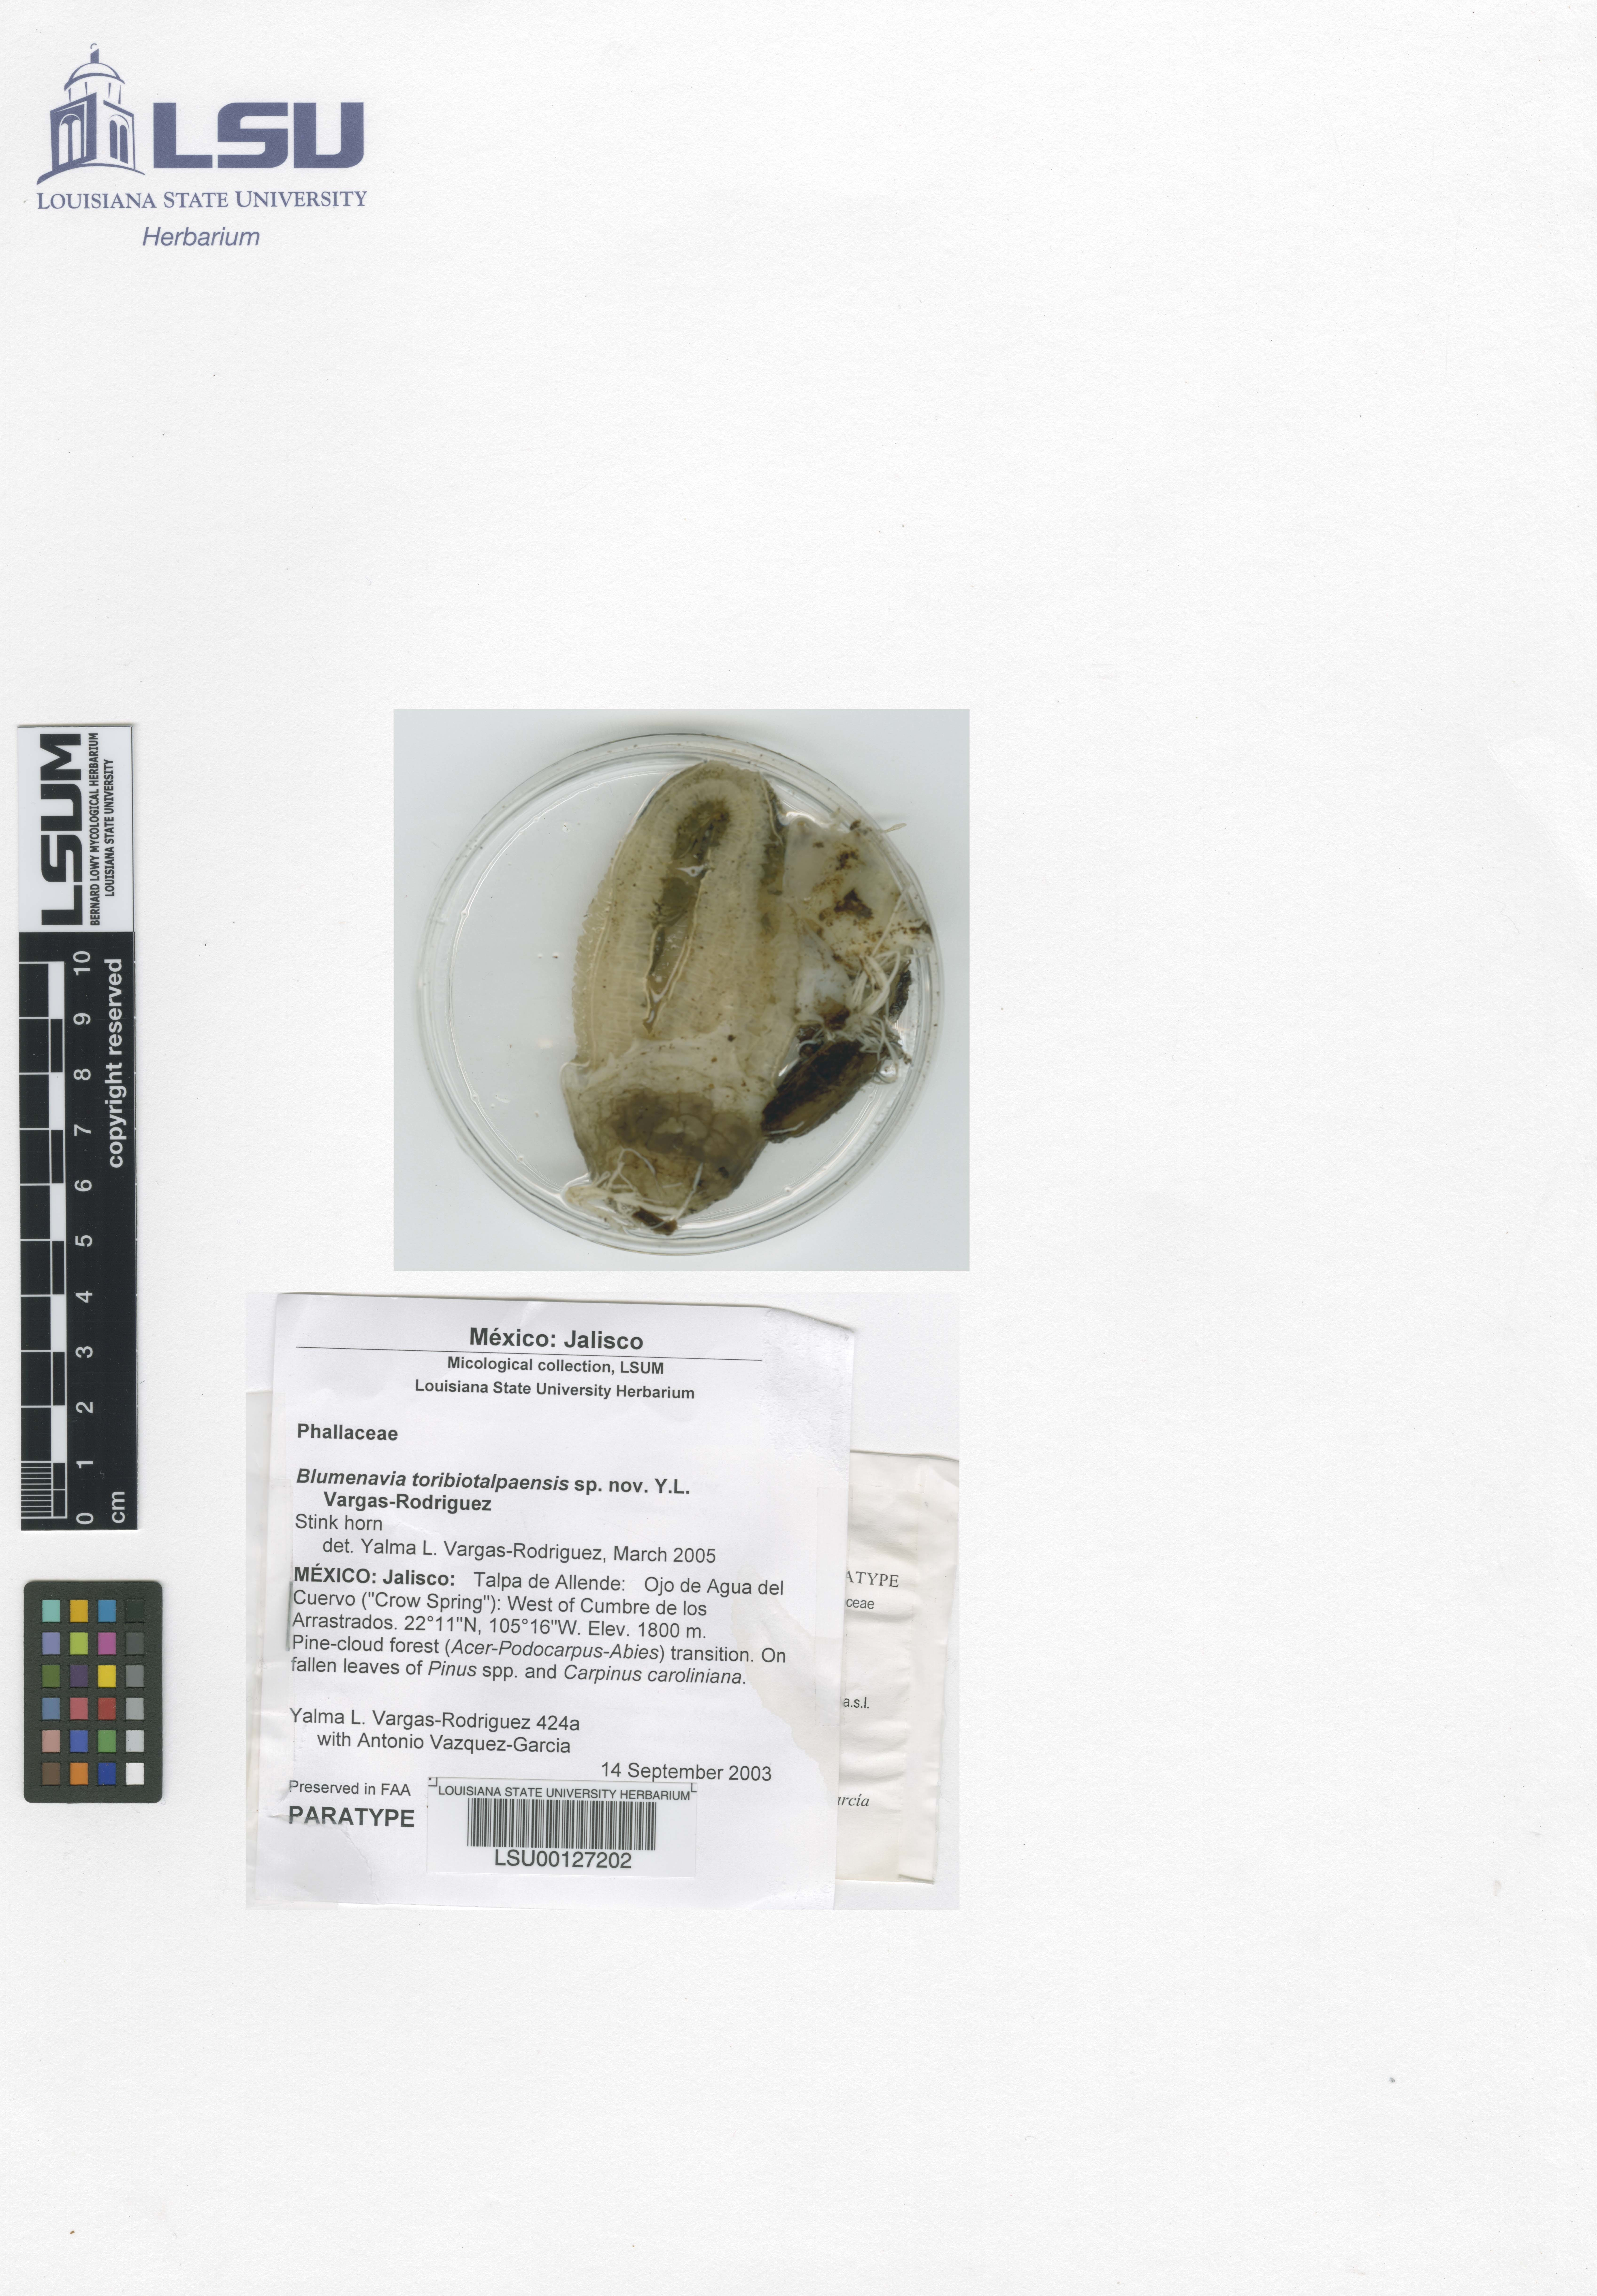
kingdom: Fungi
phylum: Basidiomycota
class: Agaricomycetes
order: Phallales
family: Phallaceae
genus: Blumenavia
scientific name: Blumenavia toribiotalpaensis
